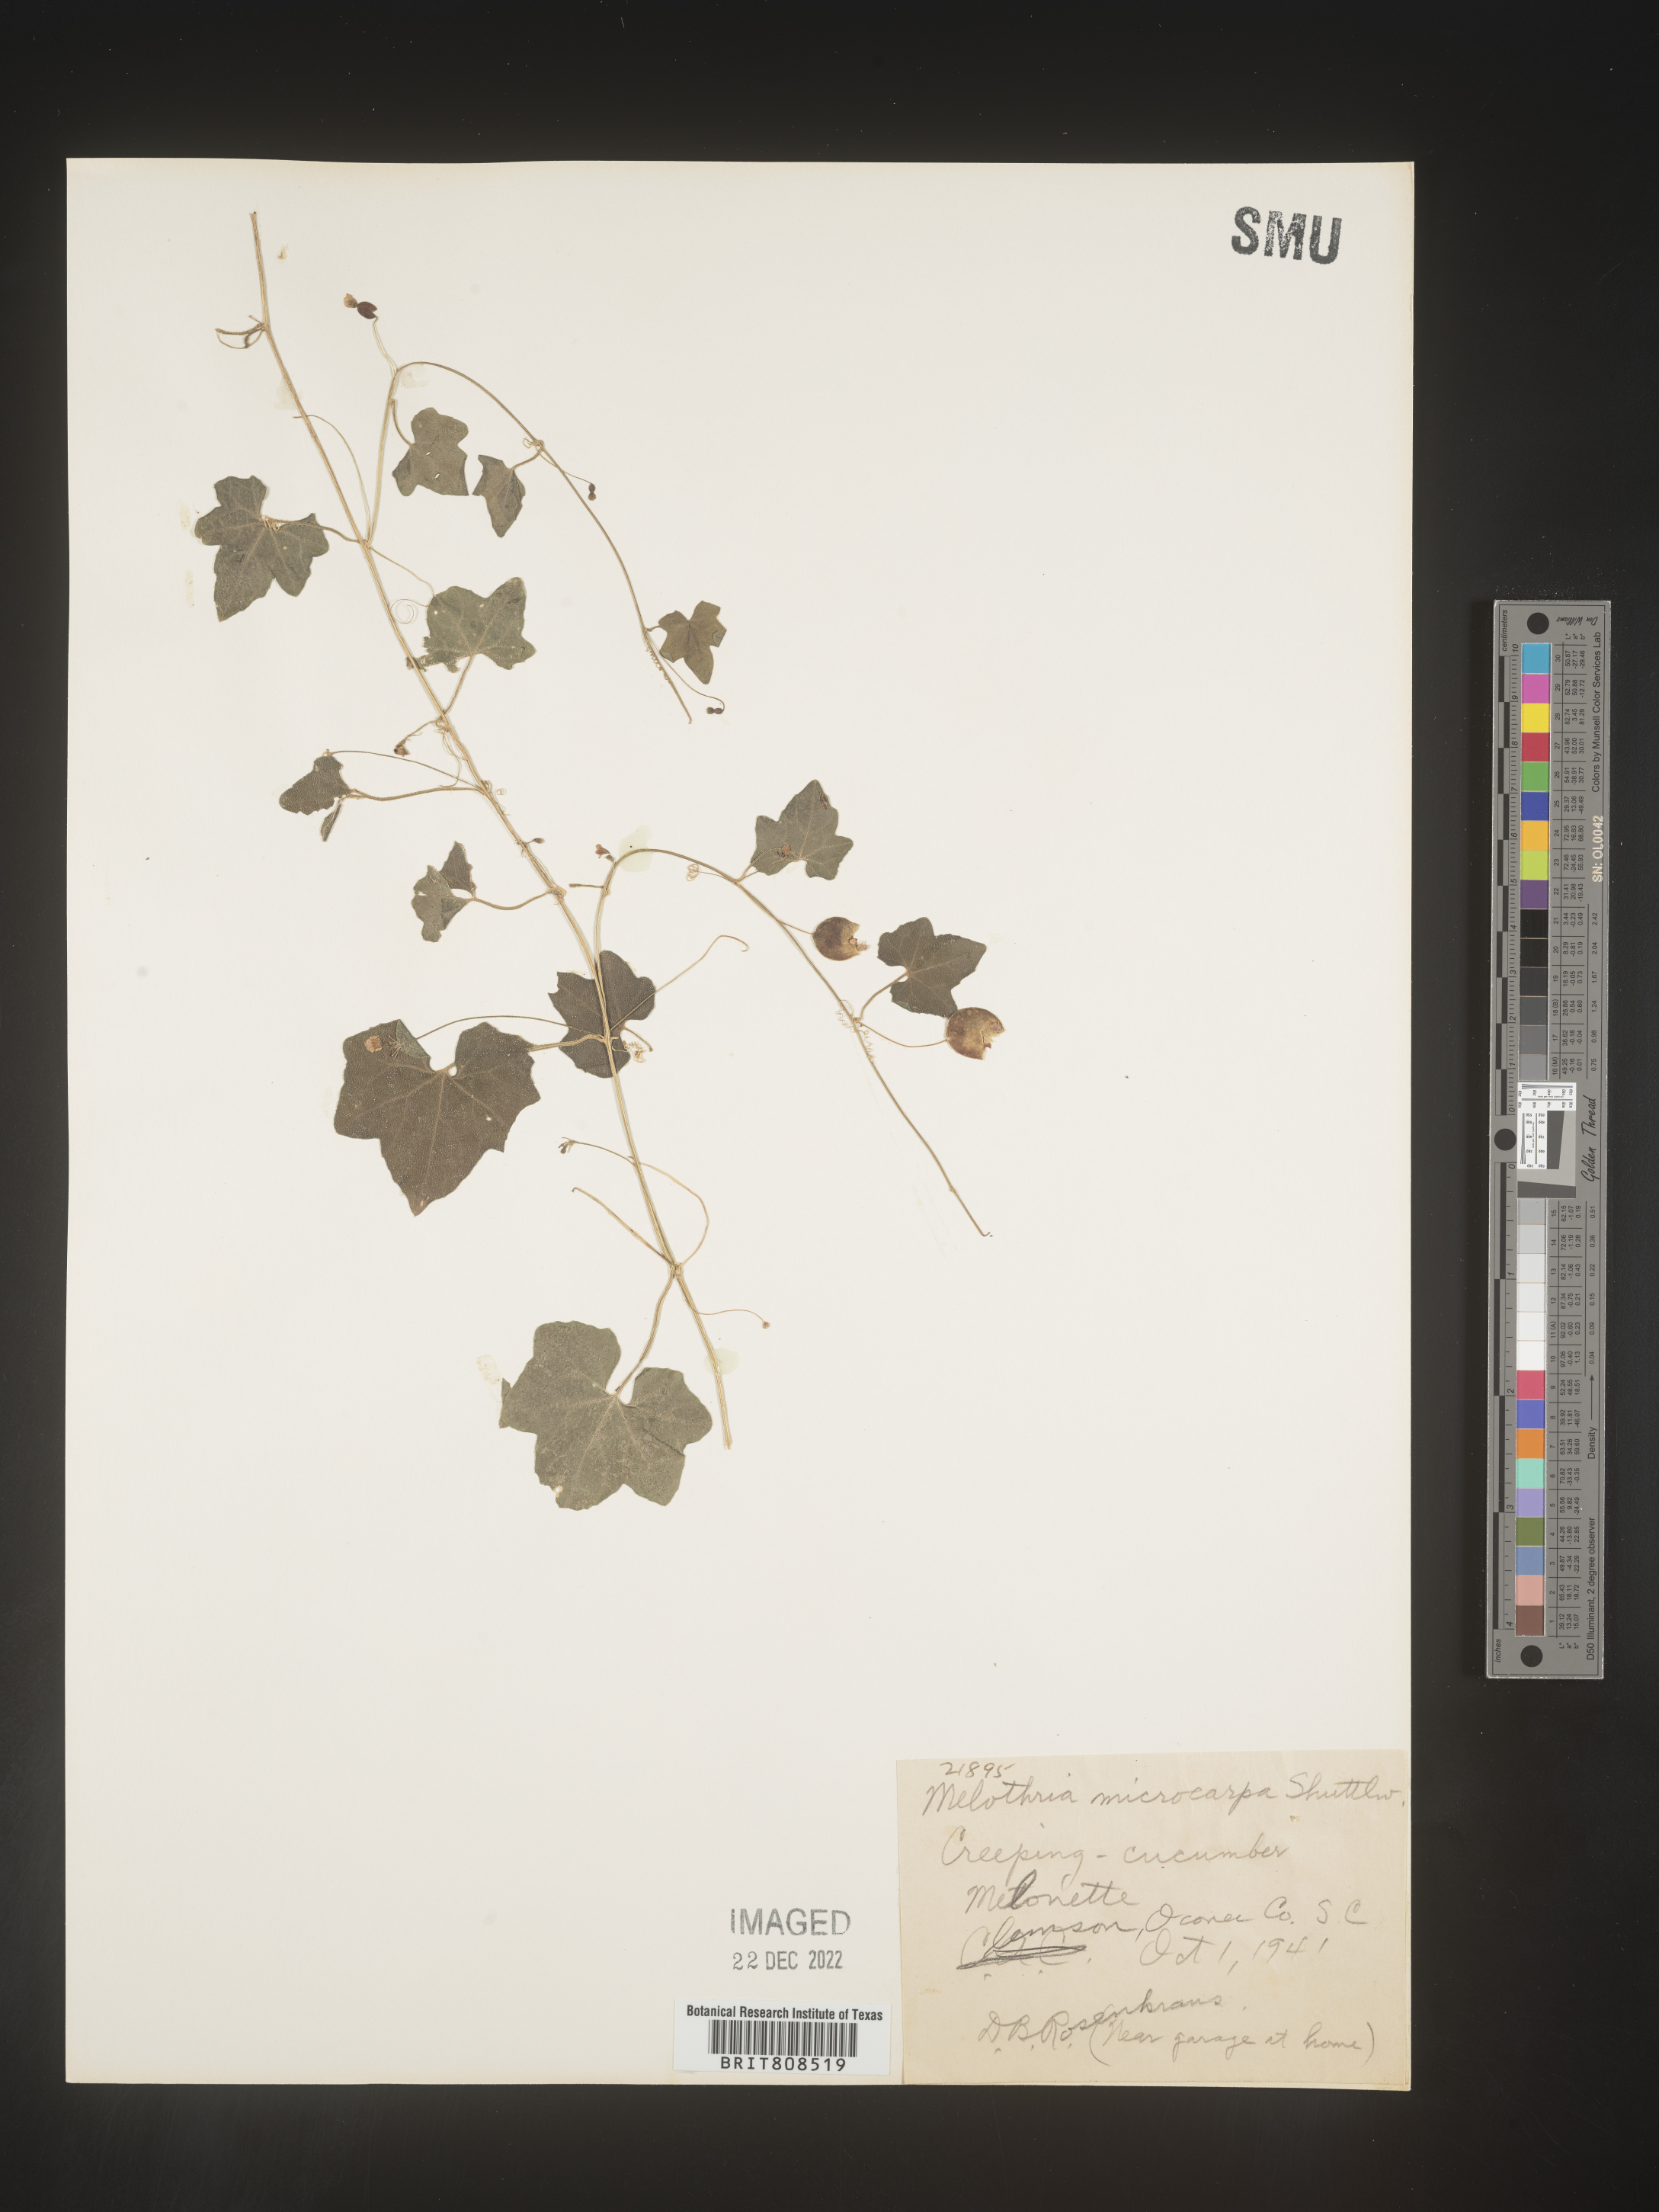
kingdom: Plantae
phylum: Tracheophyta
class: Magnoliopsida
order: Cucurbitales
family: Cucurbitaceae
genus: Melothria
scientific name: Melothria
